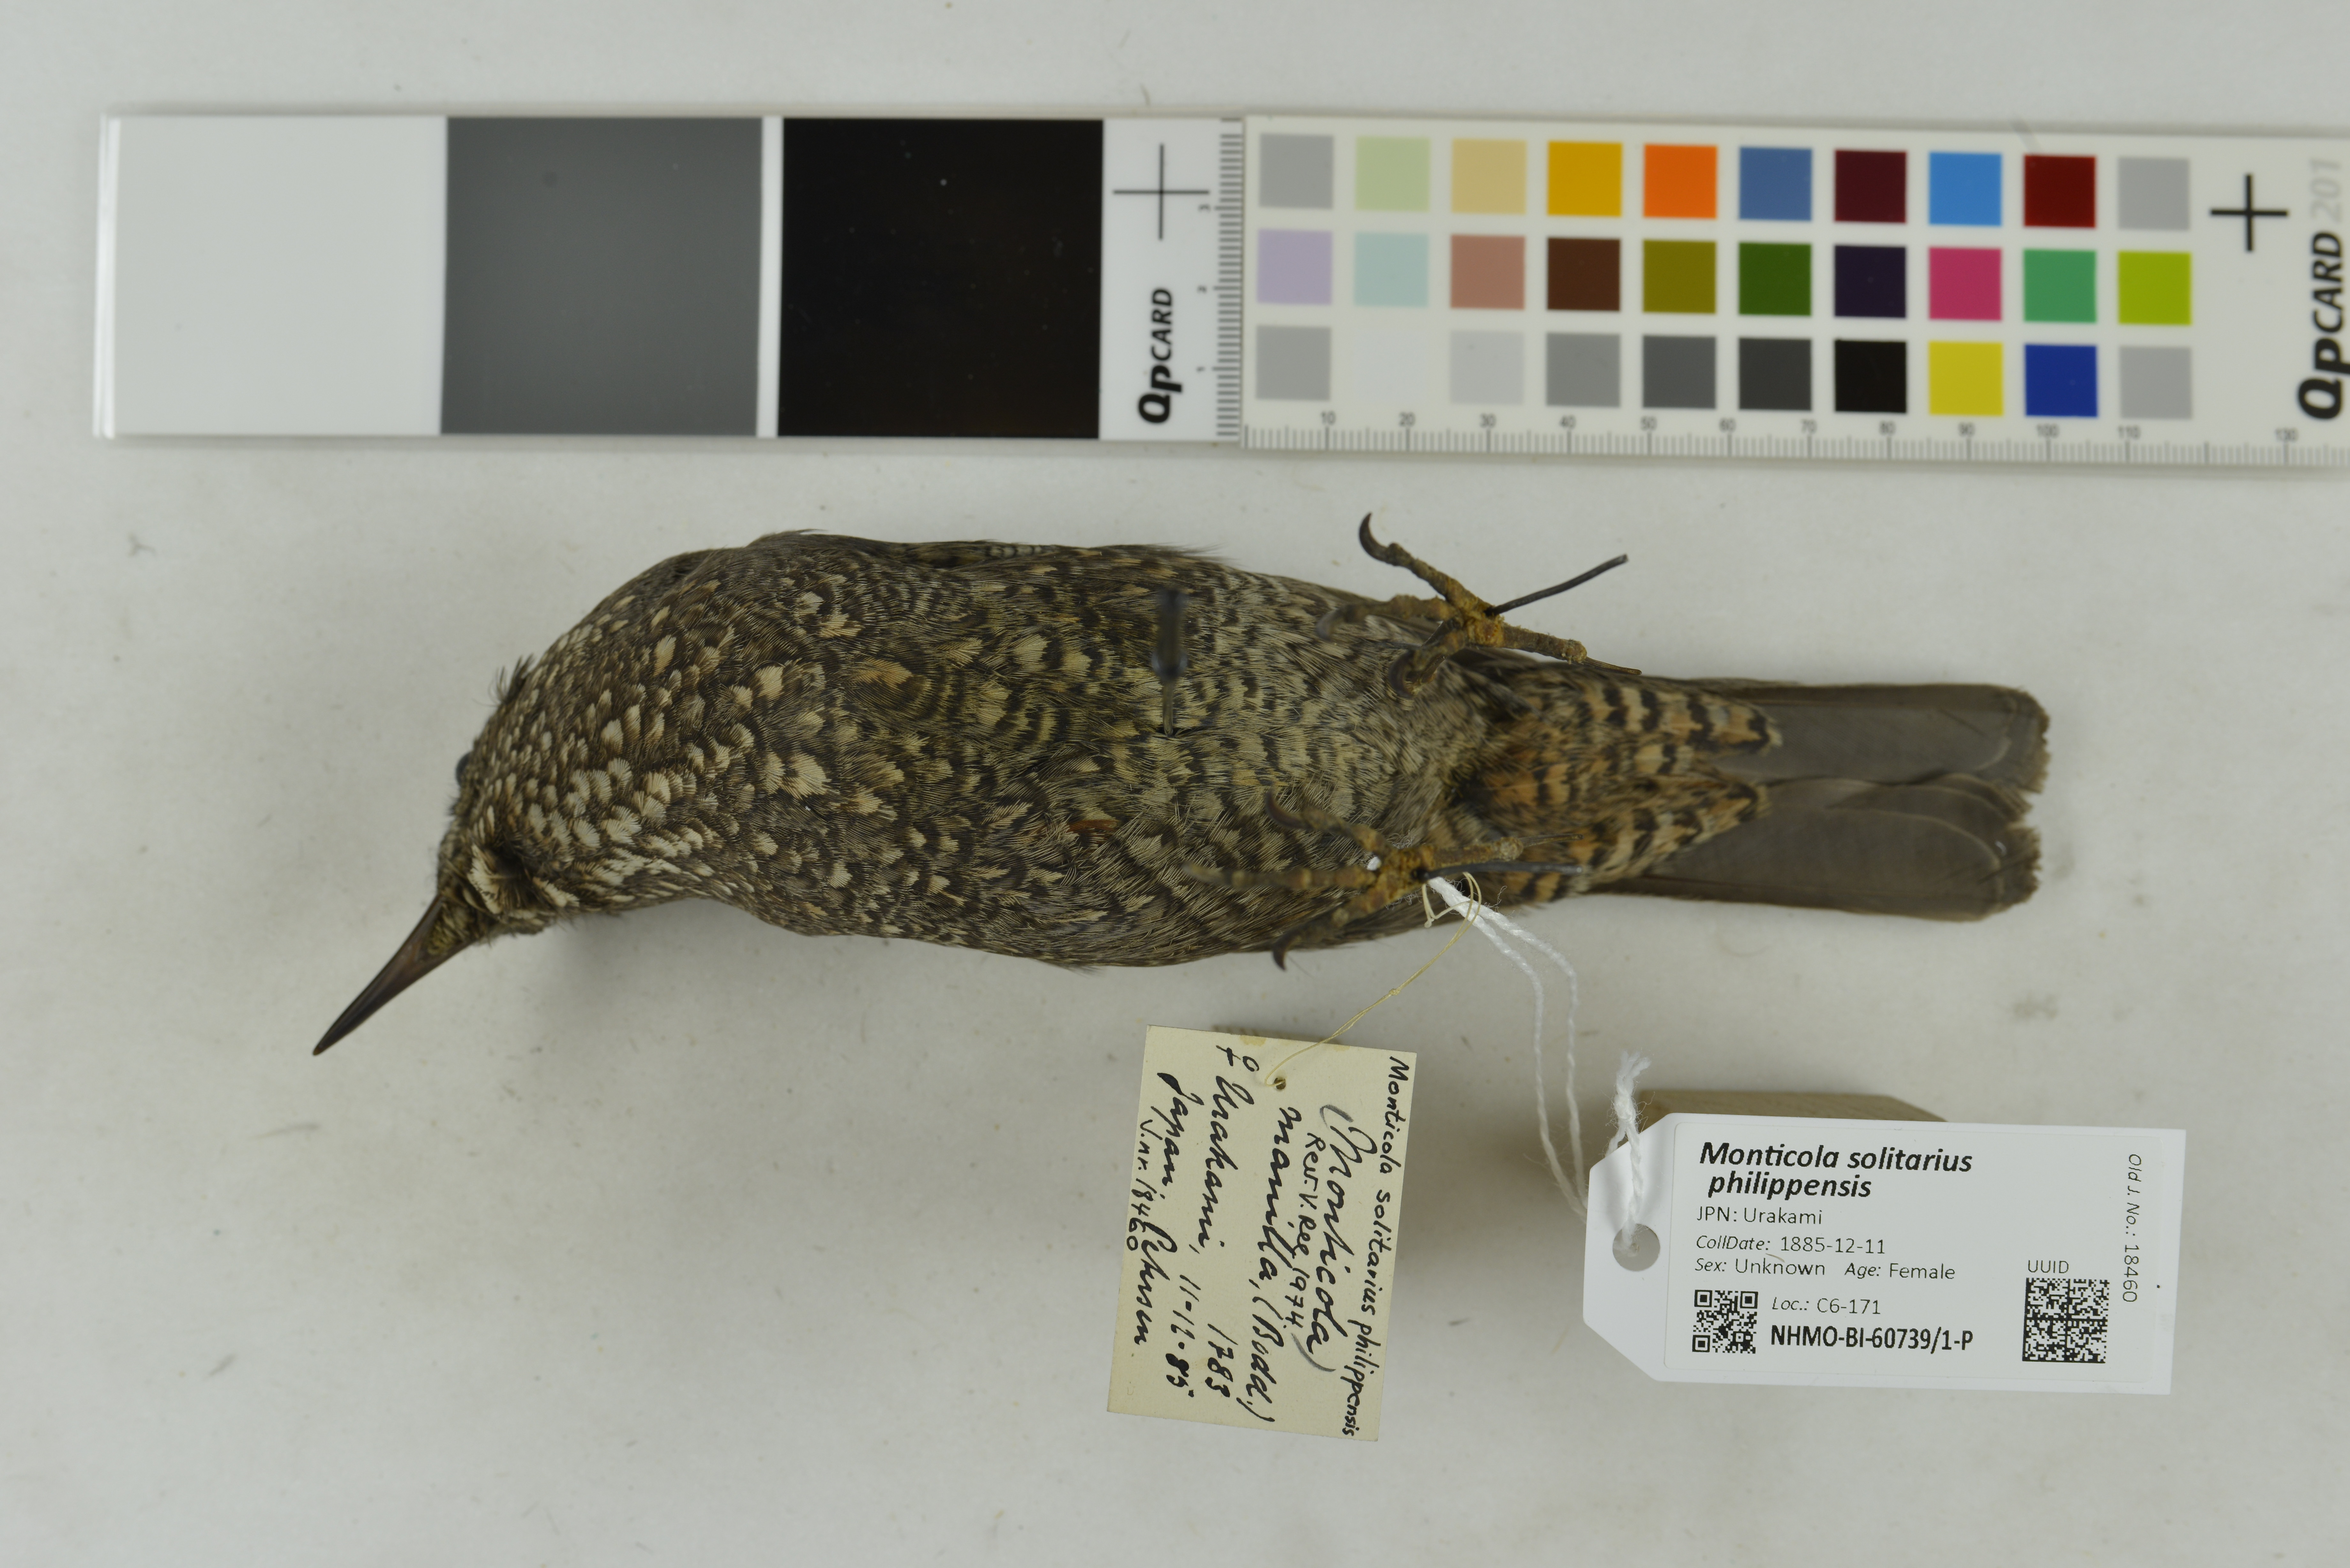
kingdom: Animalia
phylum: Chordata
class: Aves
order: Passeriformes
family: Muscicapidae
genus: Monticola
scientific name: Monticola solitarius
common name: Blue rock thrush
